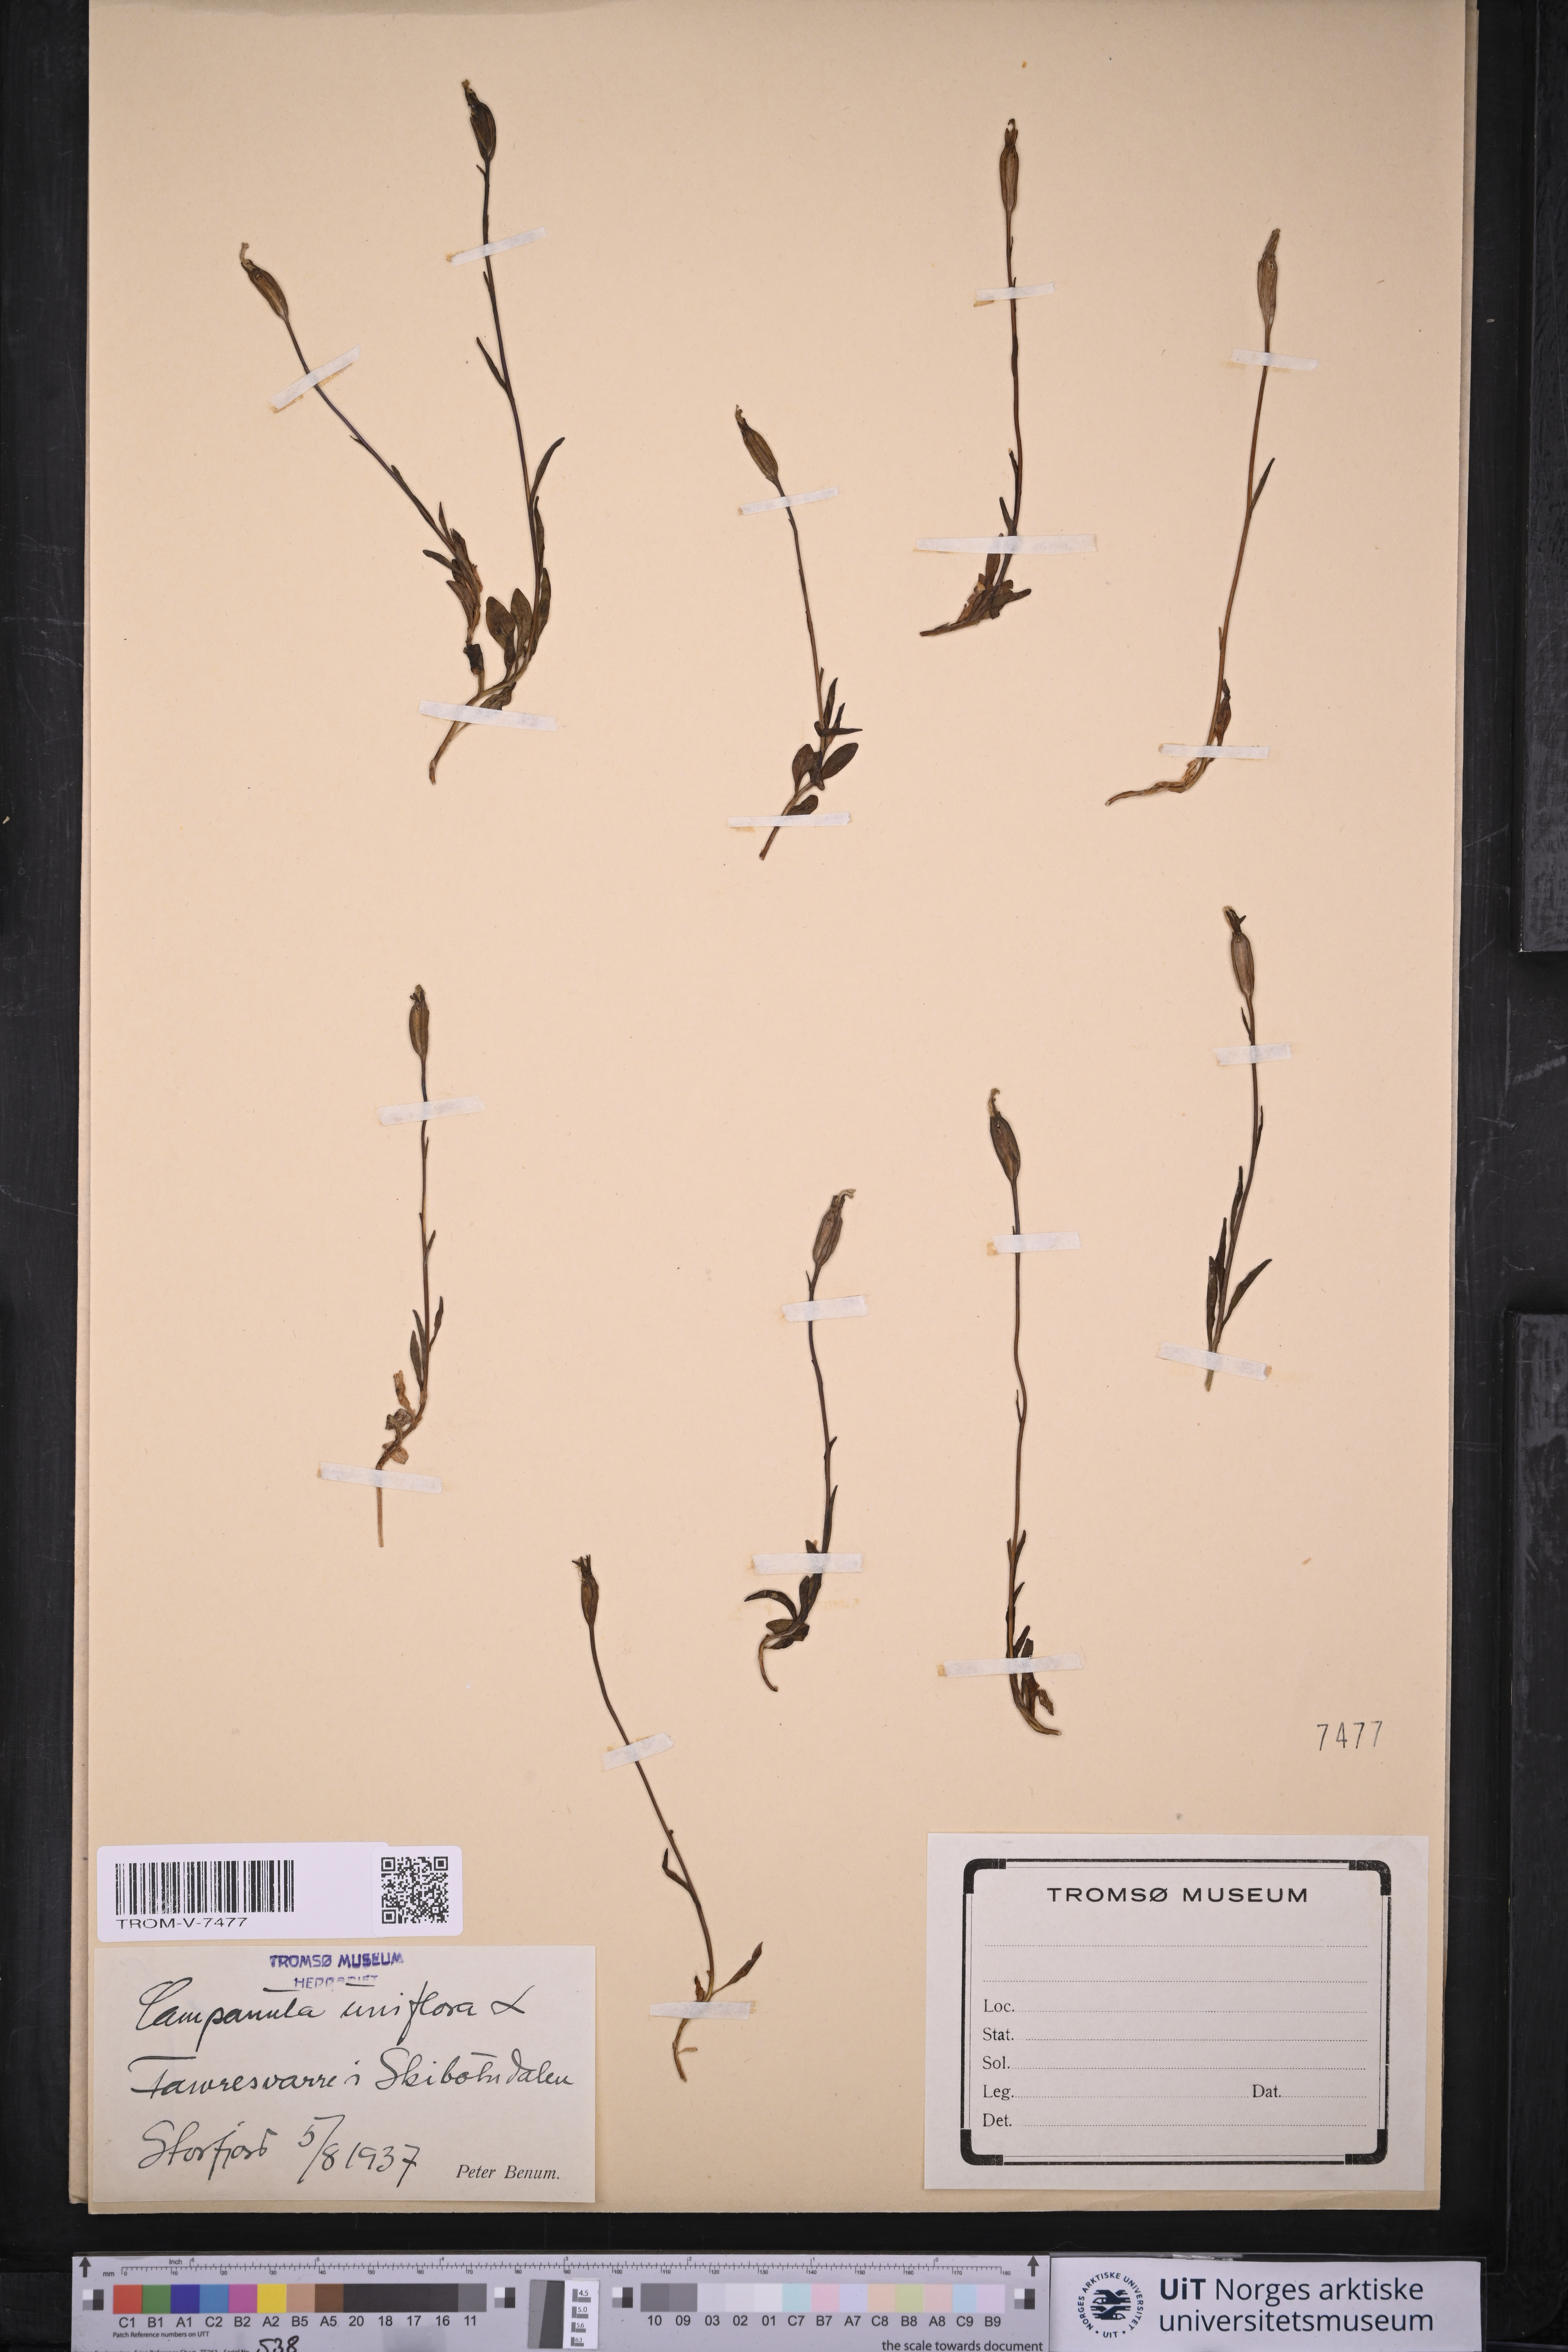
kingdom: Plantae
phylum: Tracheophyta
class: Magnoliopsida
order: Asterales
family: Campanulaceae
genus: Melanocalyx
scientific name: Melanocalyx uniflora
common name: Alpine harebell
